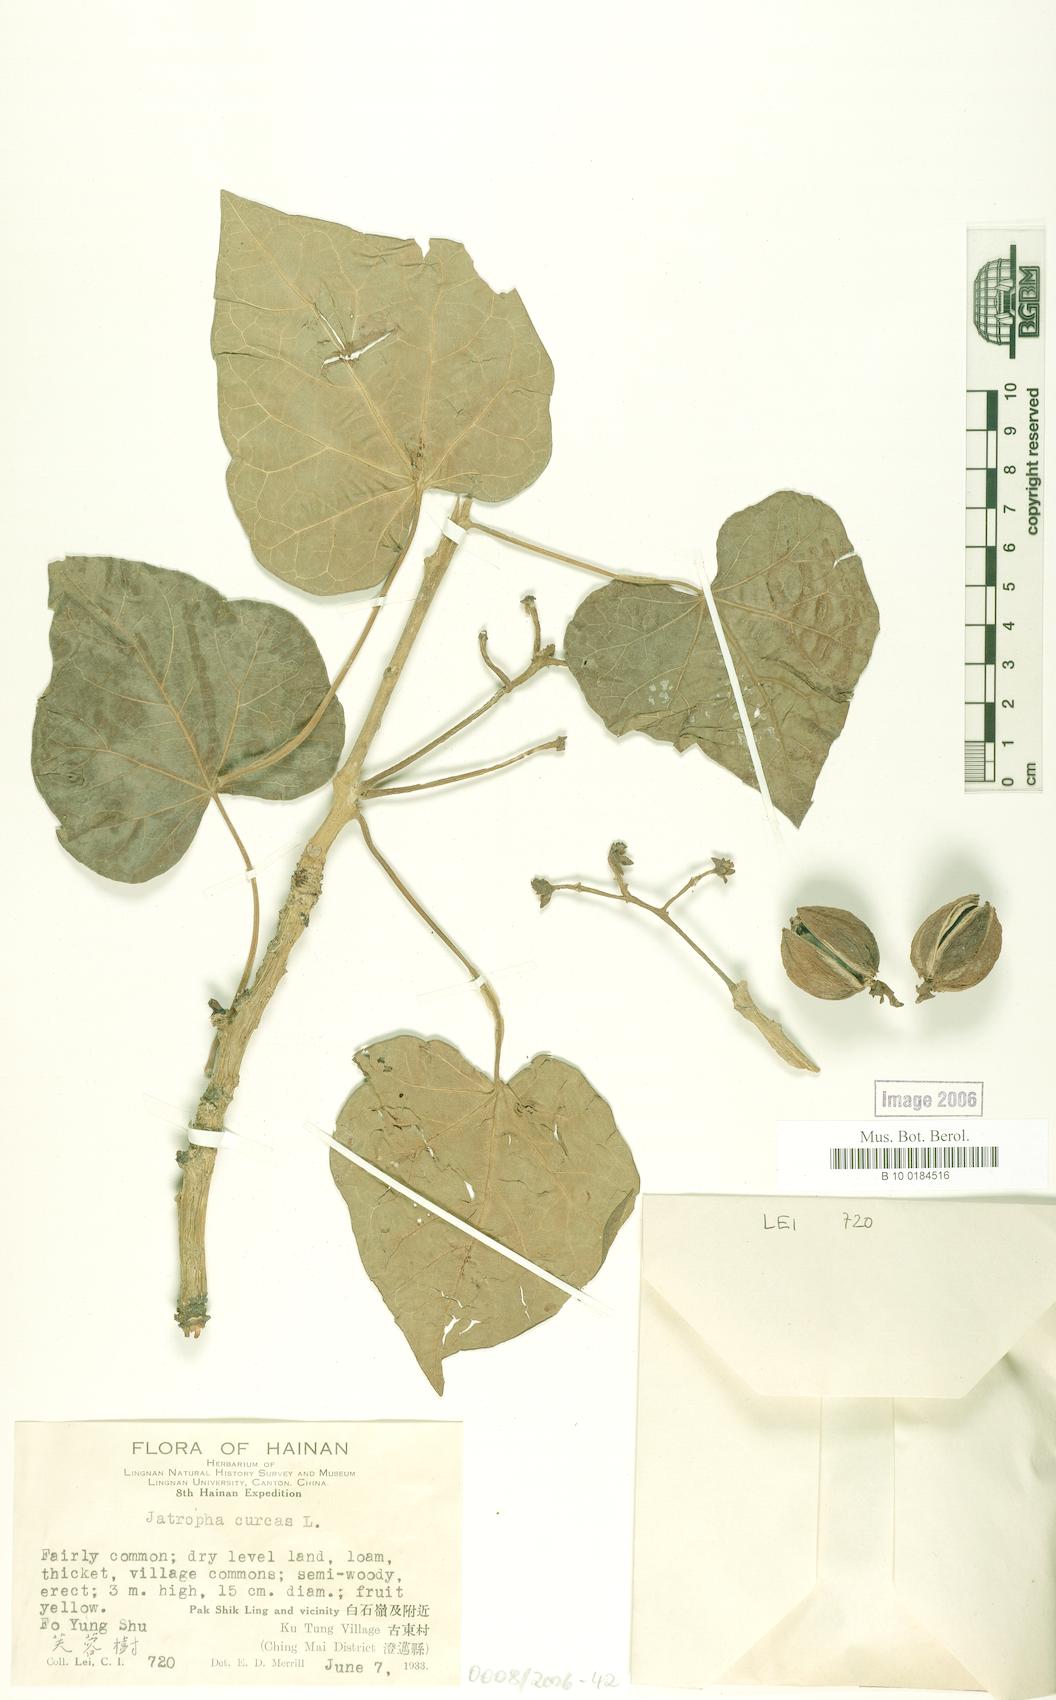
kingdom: Plantae
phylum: Tracheophyta
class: Magnoliopsida
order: Malpighiales
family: Euphorbiaceae
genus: Jatropha
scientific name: Jatropha curcas
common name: Barbados nut
